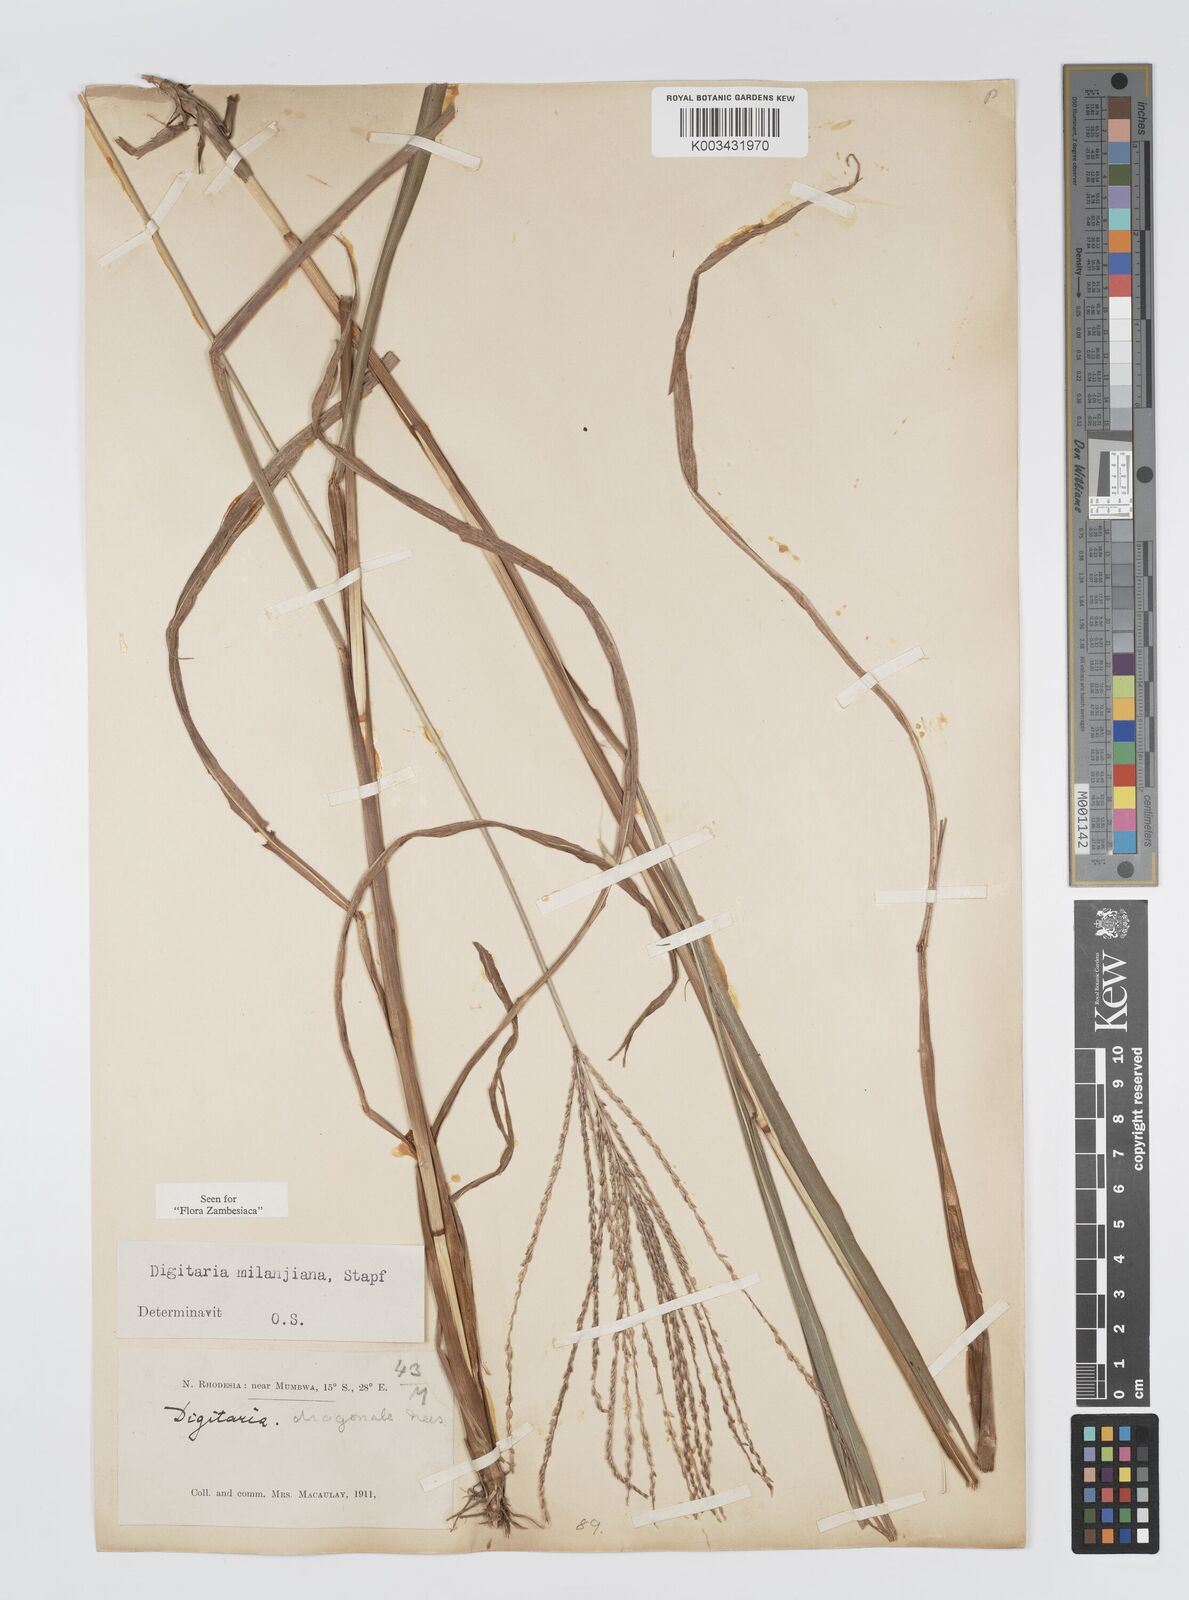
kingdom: Plantae
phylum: Tracheophyta
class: Liliopsida
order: Poales
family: Poaceae
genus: Digitaria
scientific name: Digitaria milanjiana
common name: Madagascar crabgrass
